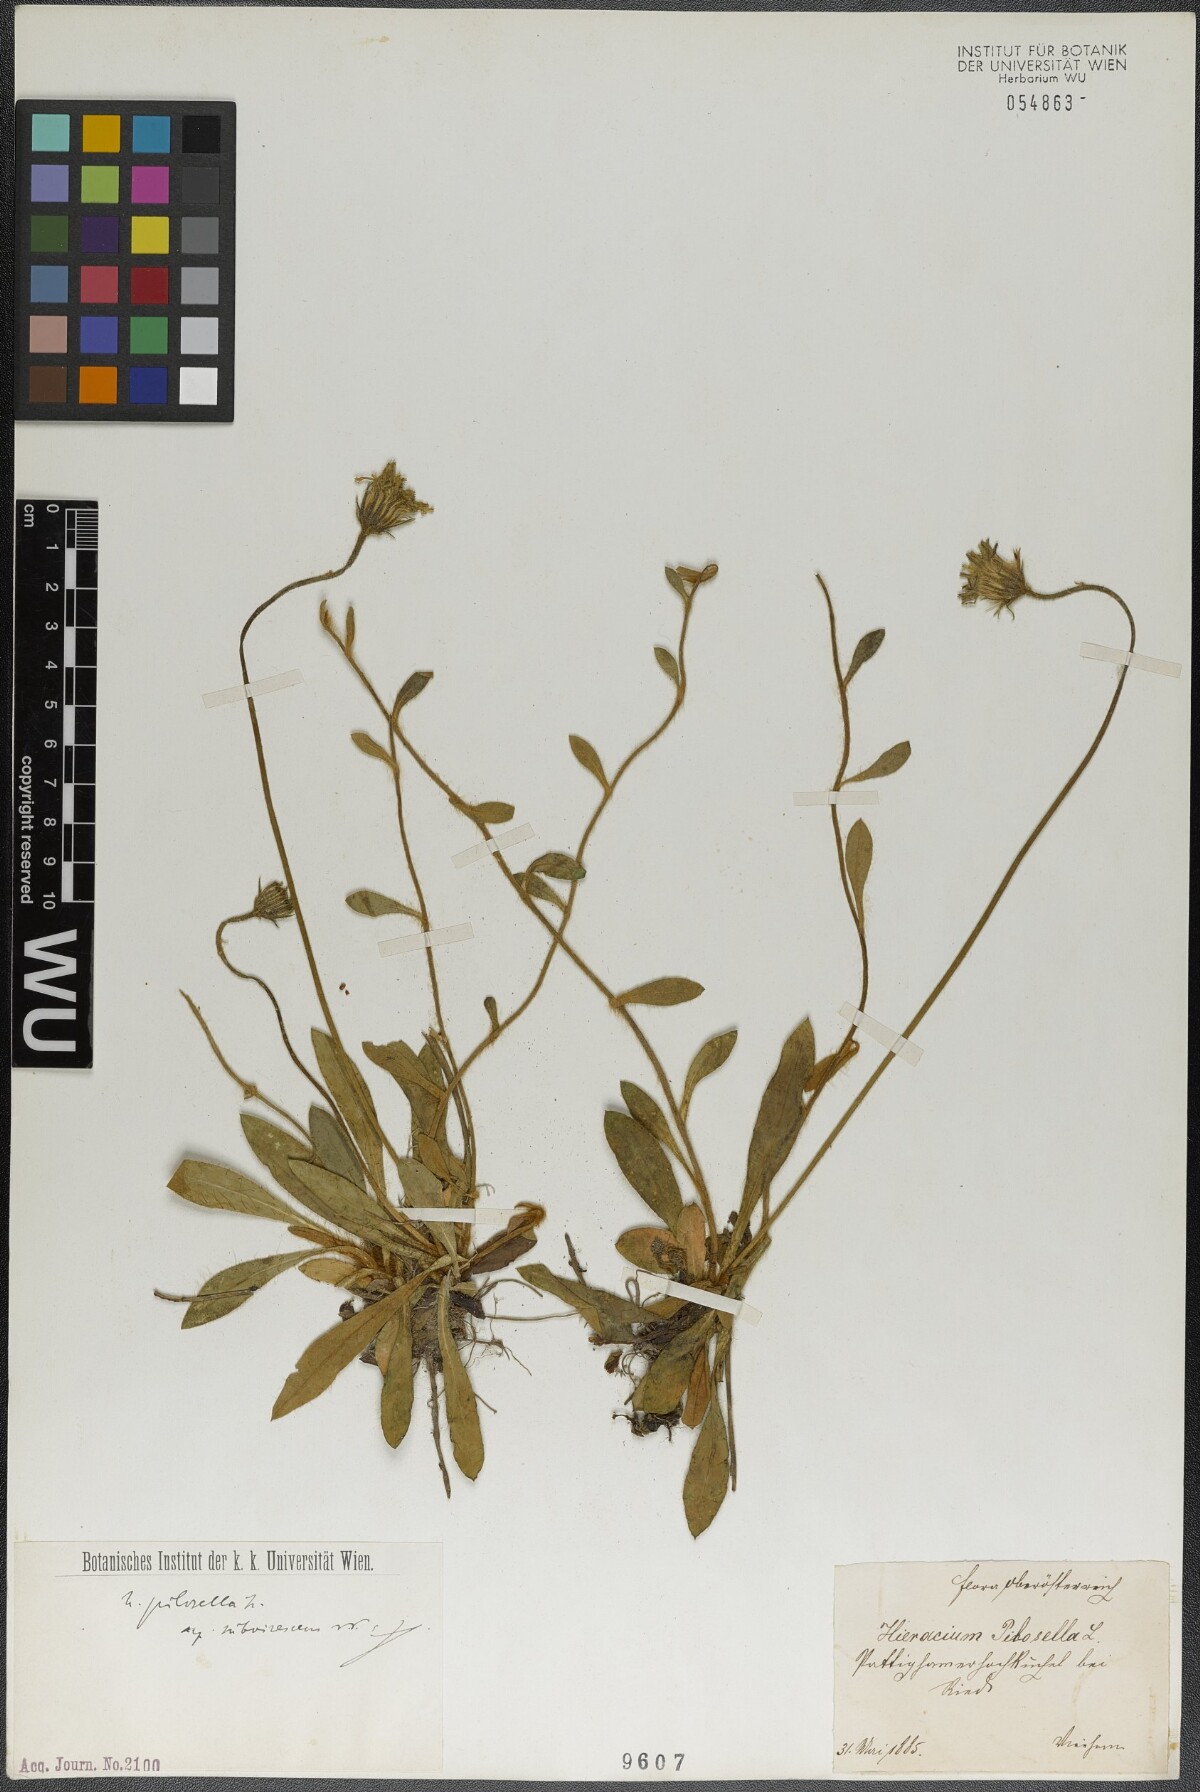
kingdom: Plantae
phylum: Tracheophyta
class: Magnoliopsida
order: Asterales
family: Asteraceae
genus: Pilosella
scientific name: Pilosella officinarum
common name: Mouse-ear hawkweed
